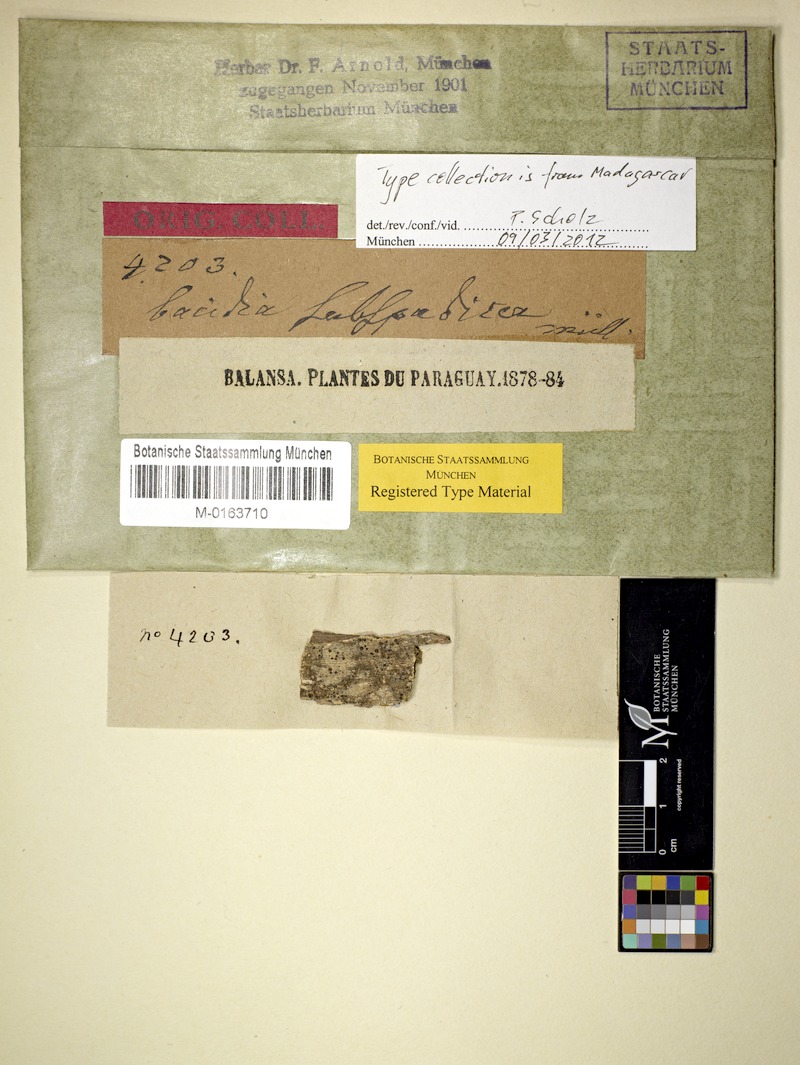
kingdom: Fungi
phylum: Ascomycota
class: Lecanoromycetes
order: Lecanorales
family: Ramalinaceae
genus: Bacidia
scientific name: Bacidia polychroa
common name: Polychrome dot lichen
